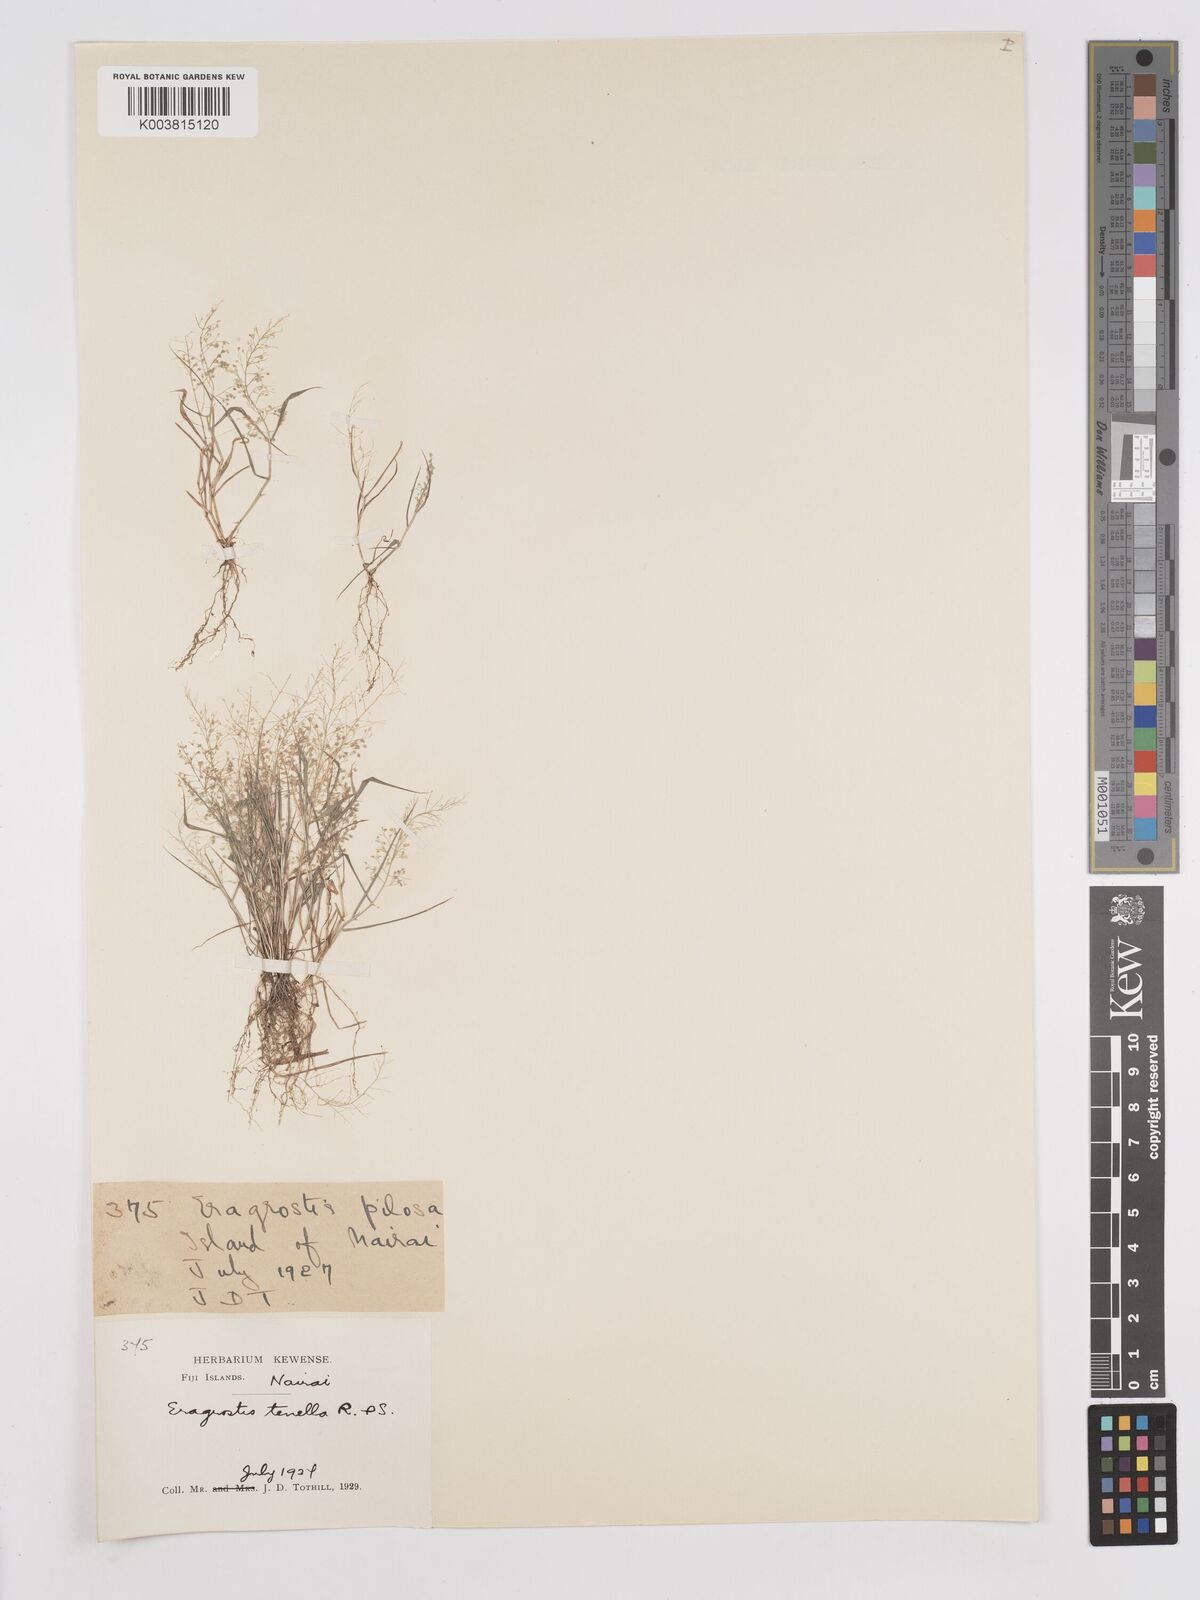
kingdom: Plantae
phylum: Tracheophyta
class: Liliopsida
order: Poales
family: Poaceae
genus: Eragrostis
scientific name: Eragrostis tenella
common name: Japanese lovegrass
